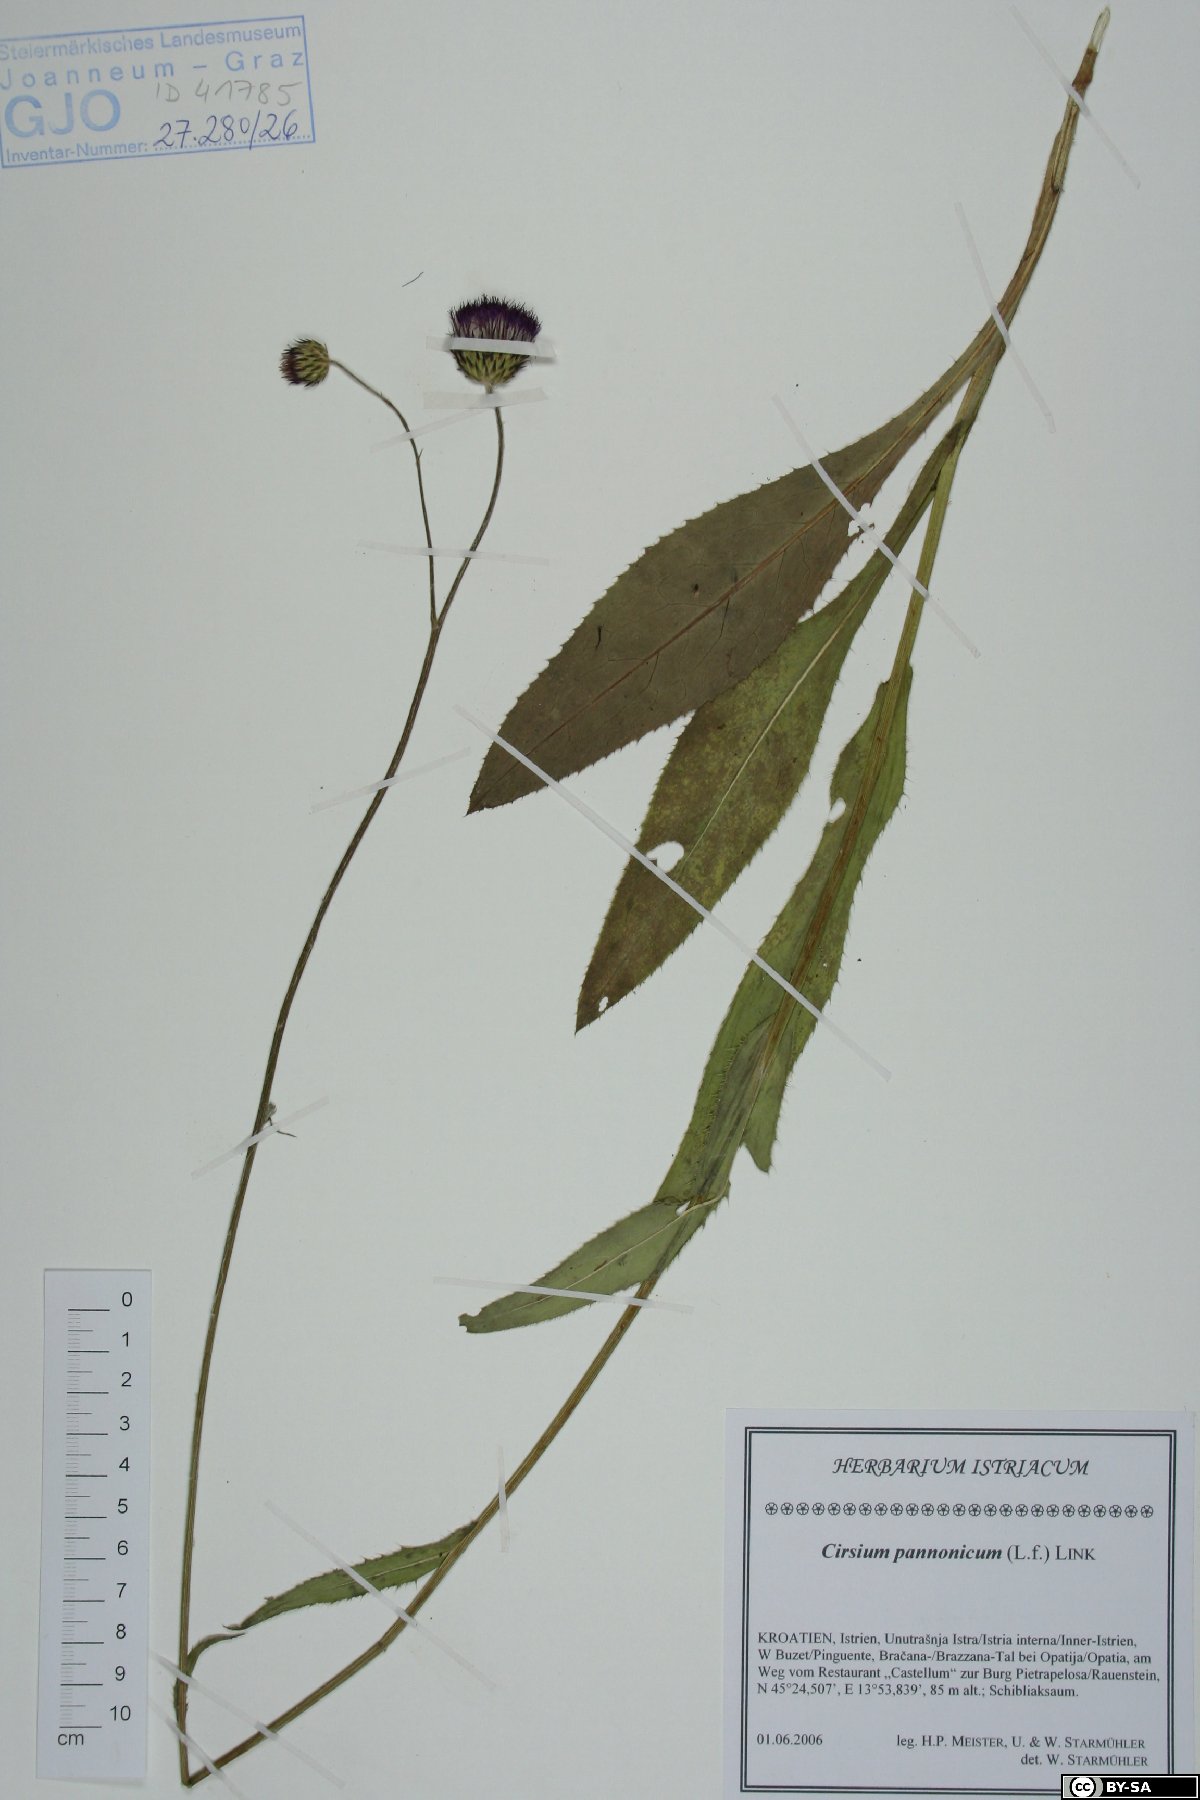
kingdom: Plantae
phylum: Tracheophyta
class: Magnoliopsida
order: Asterales
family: Asteraceae
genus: Cirsium
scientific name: Cirsium pannonicum
